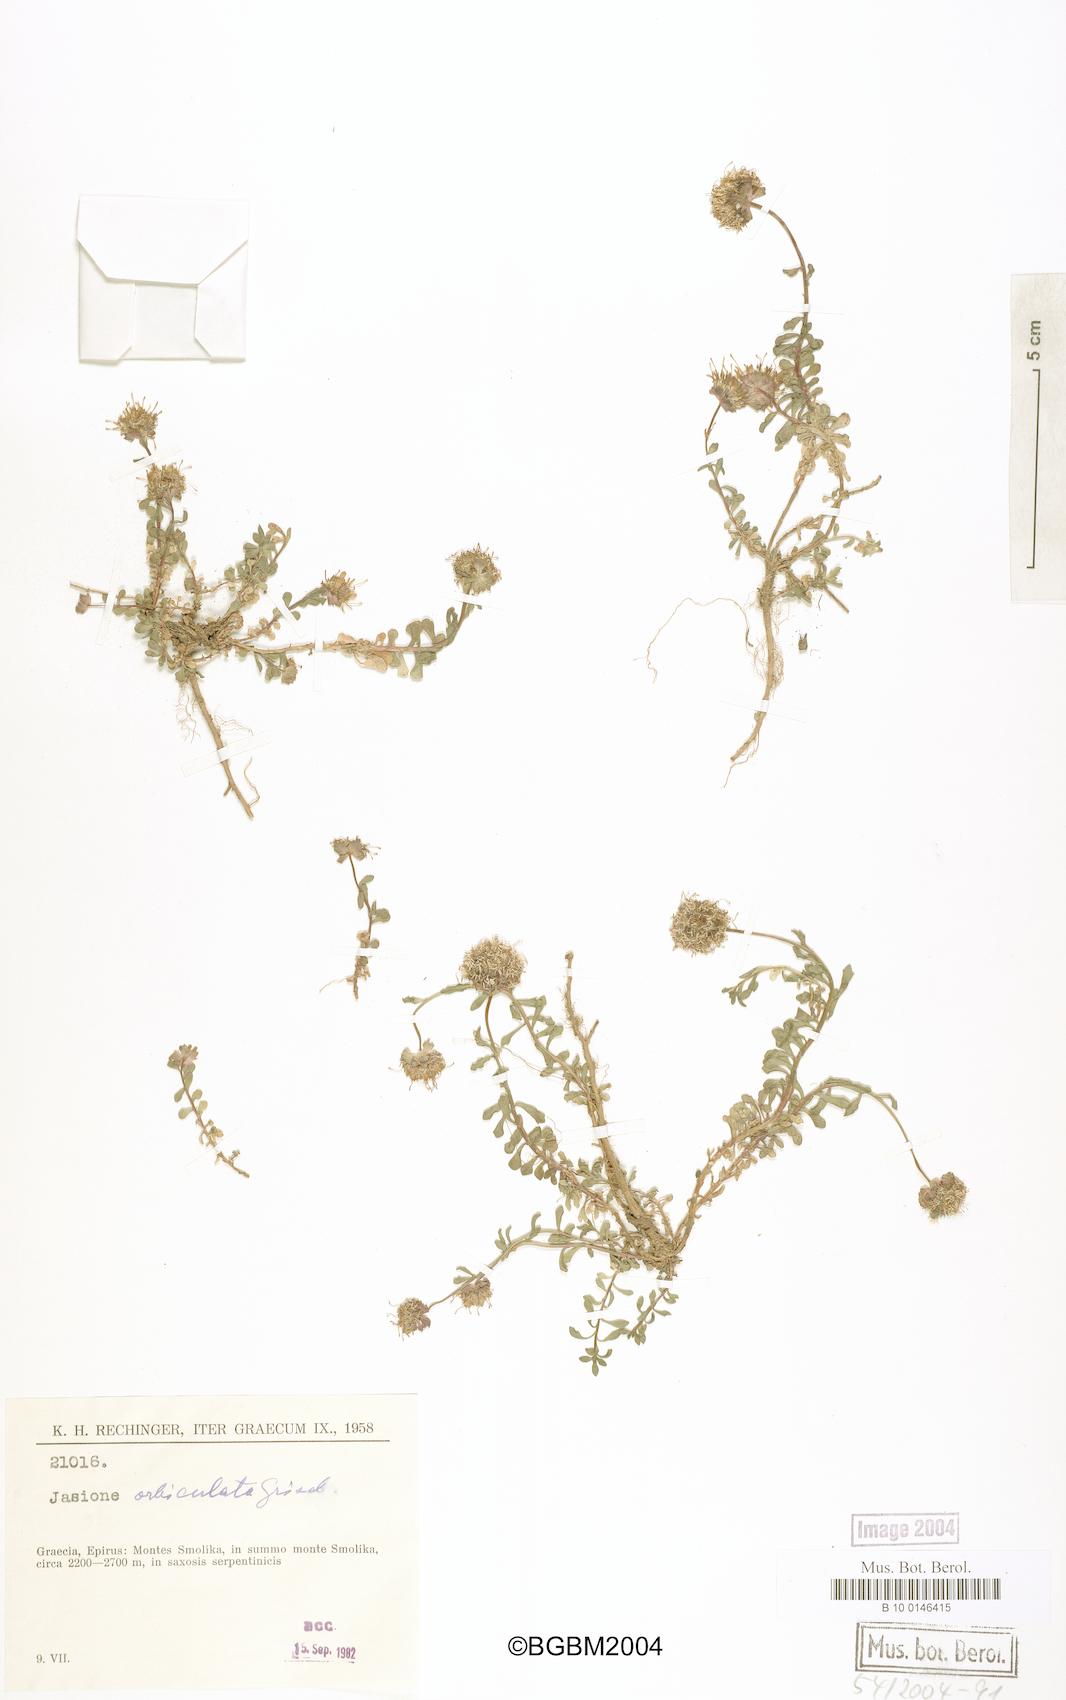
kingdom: Plantae
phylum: Tracheophyta
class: Magnoliopsida
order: Asterales
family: Campanulaceae
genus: Jasione
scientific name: Jasione orbiculata
